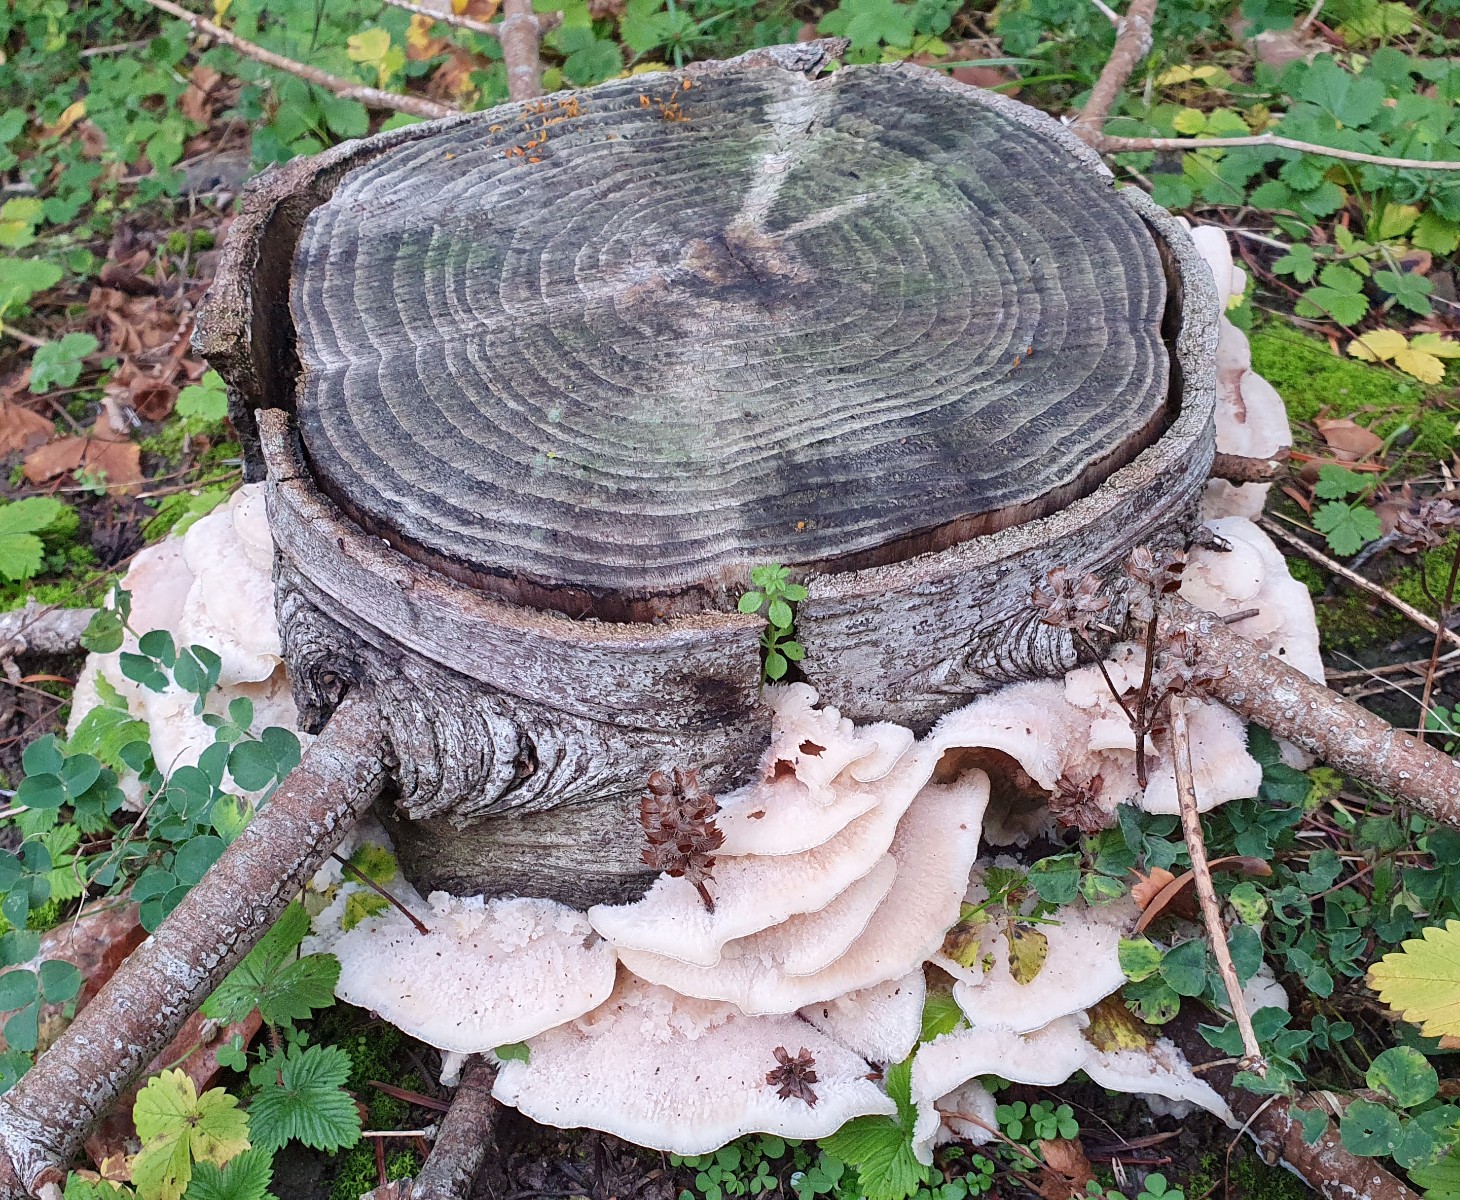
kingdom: Fungi
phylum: Basidiomycota
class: Agaricomycetes
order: Polyporales
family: Meruliaceae
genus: Phlebia
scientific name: Phlebia tremellosa
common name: bævrende åresvamp
